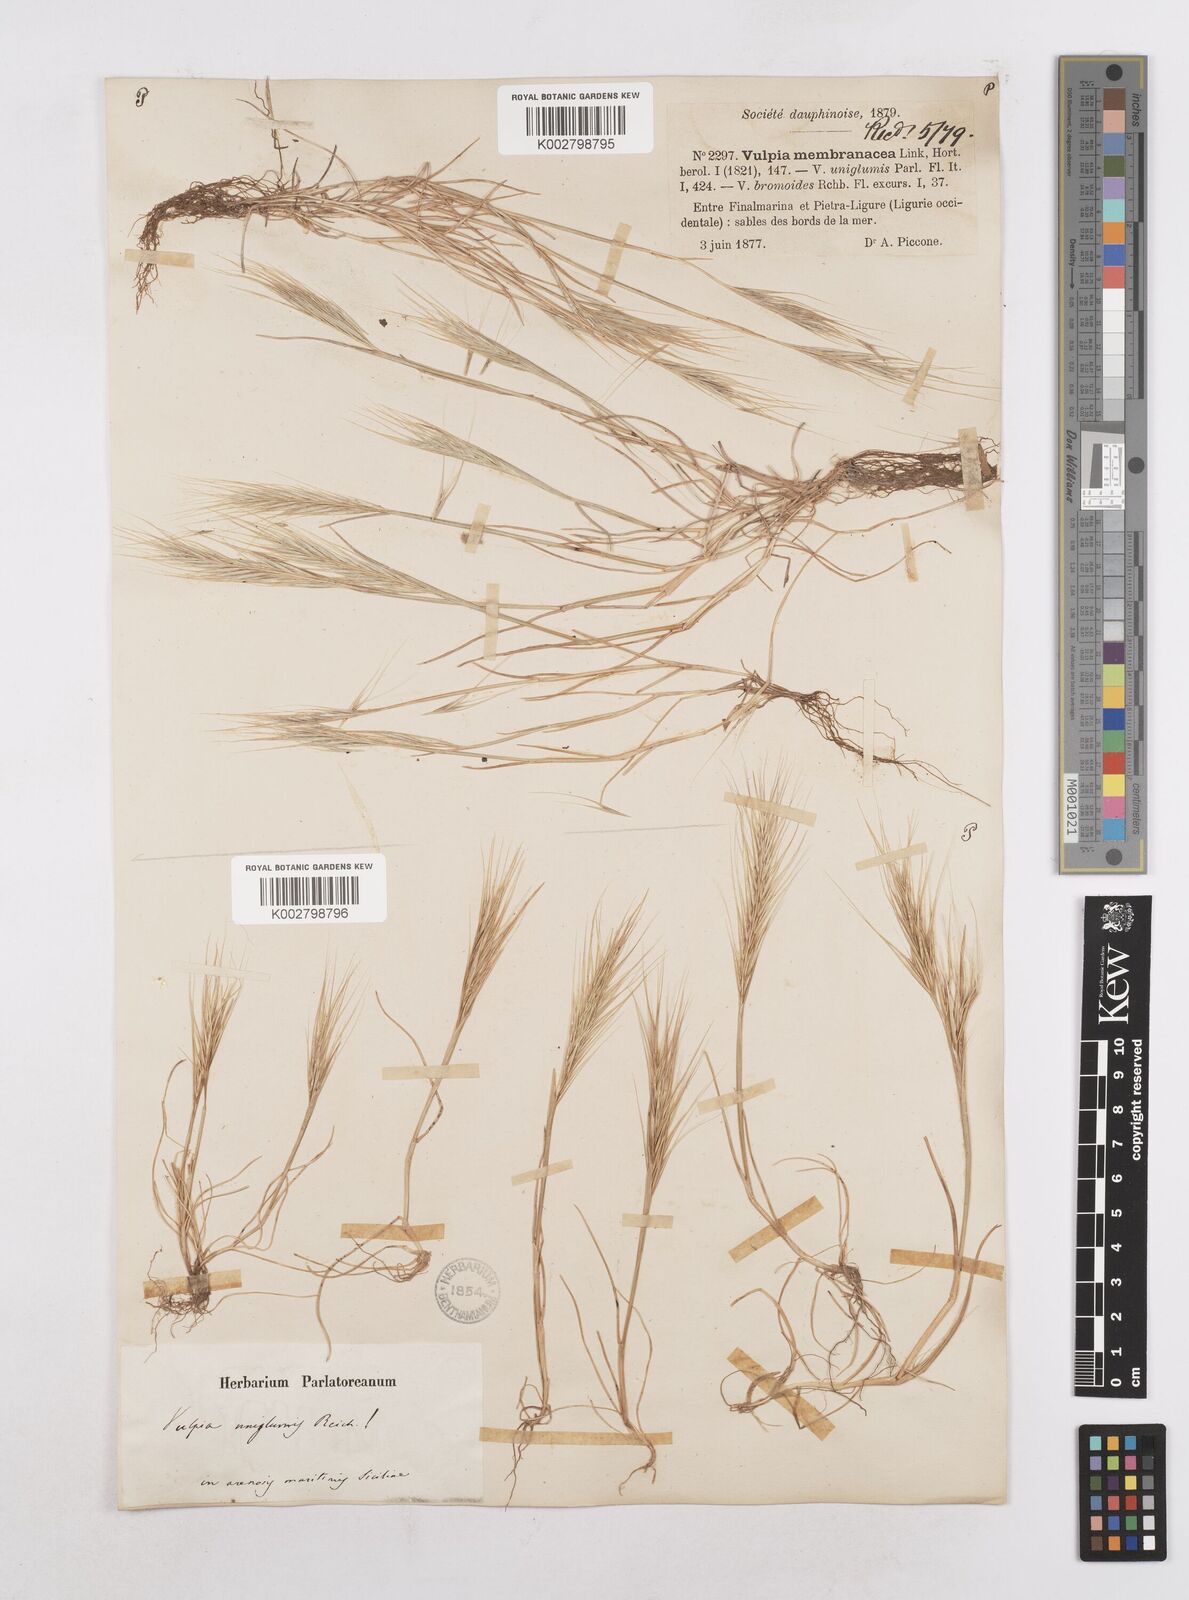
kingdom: Plantae
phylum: Tracheophyta
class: Liliopsida
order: Poales
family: Poaceae
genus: Festuca
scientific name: Festuca fasciculata
